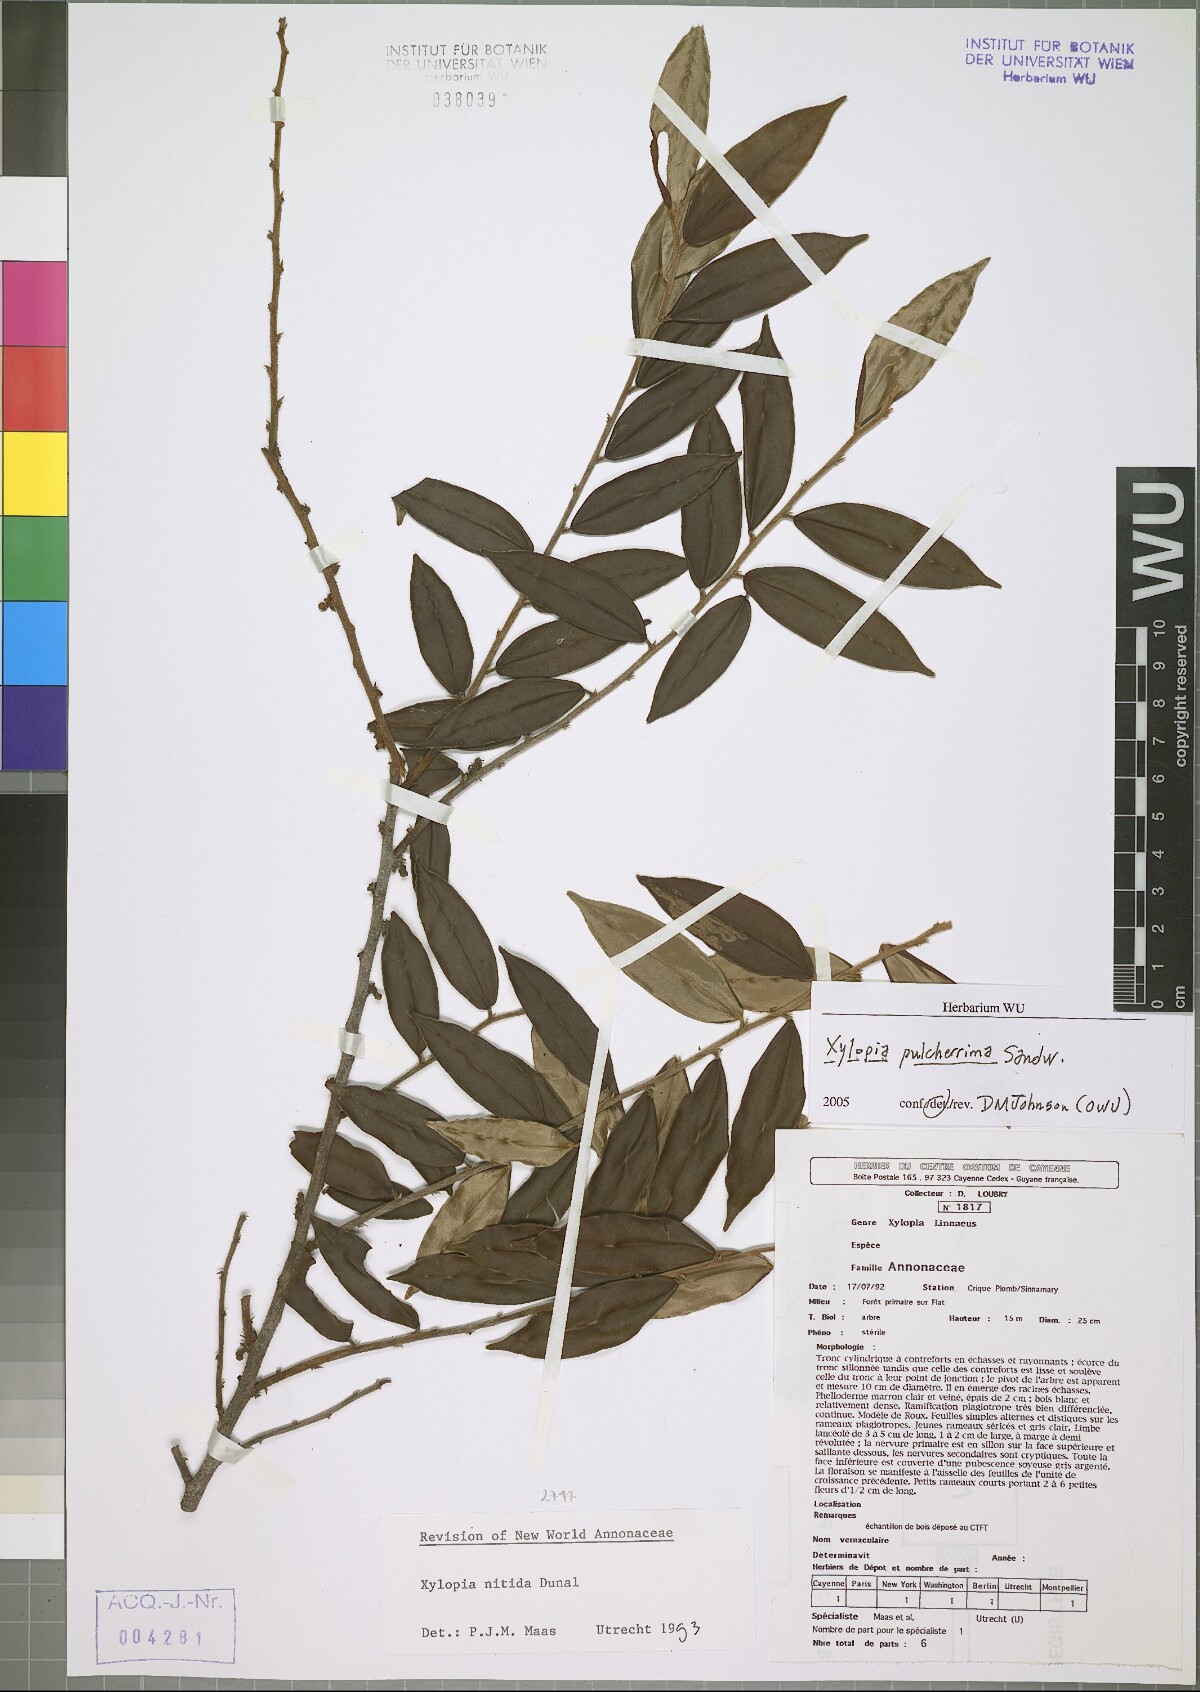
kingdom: Plantae
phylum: Tracheophyta
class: Magnoliopsida
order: Magnoliales
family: Annonaceae
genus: Xylopia
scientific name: Xylopia pulcherrima
